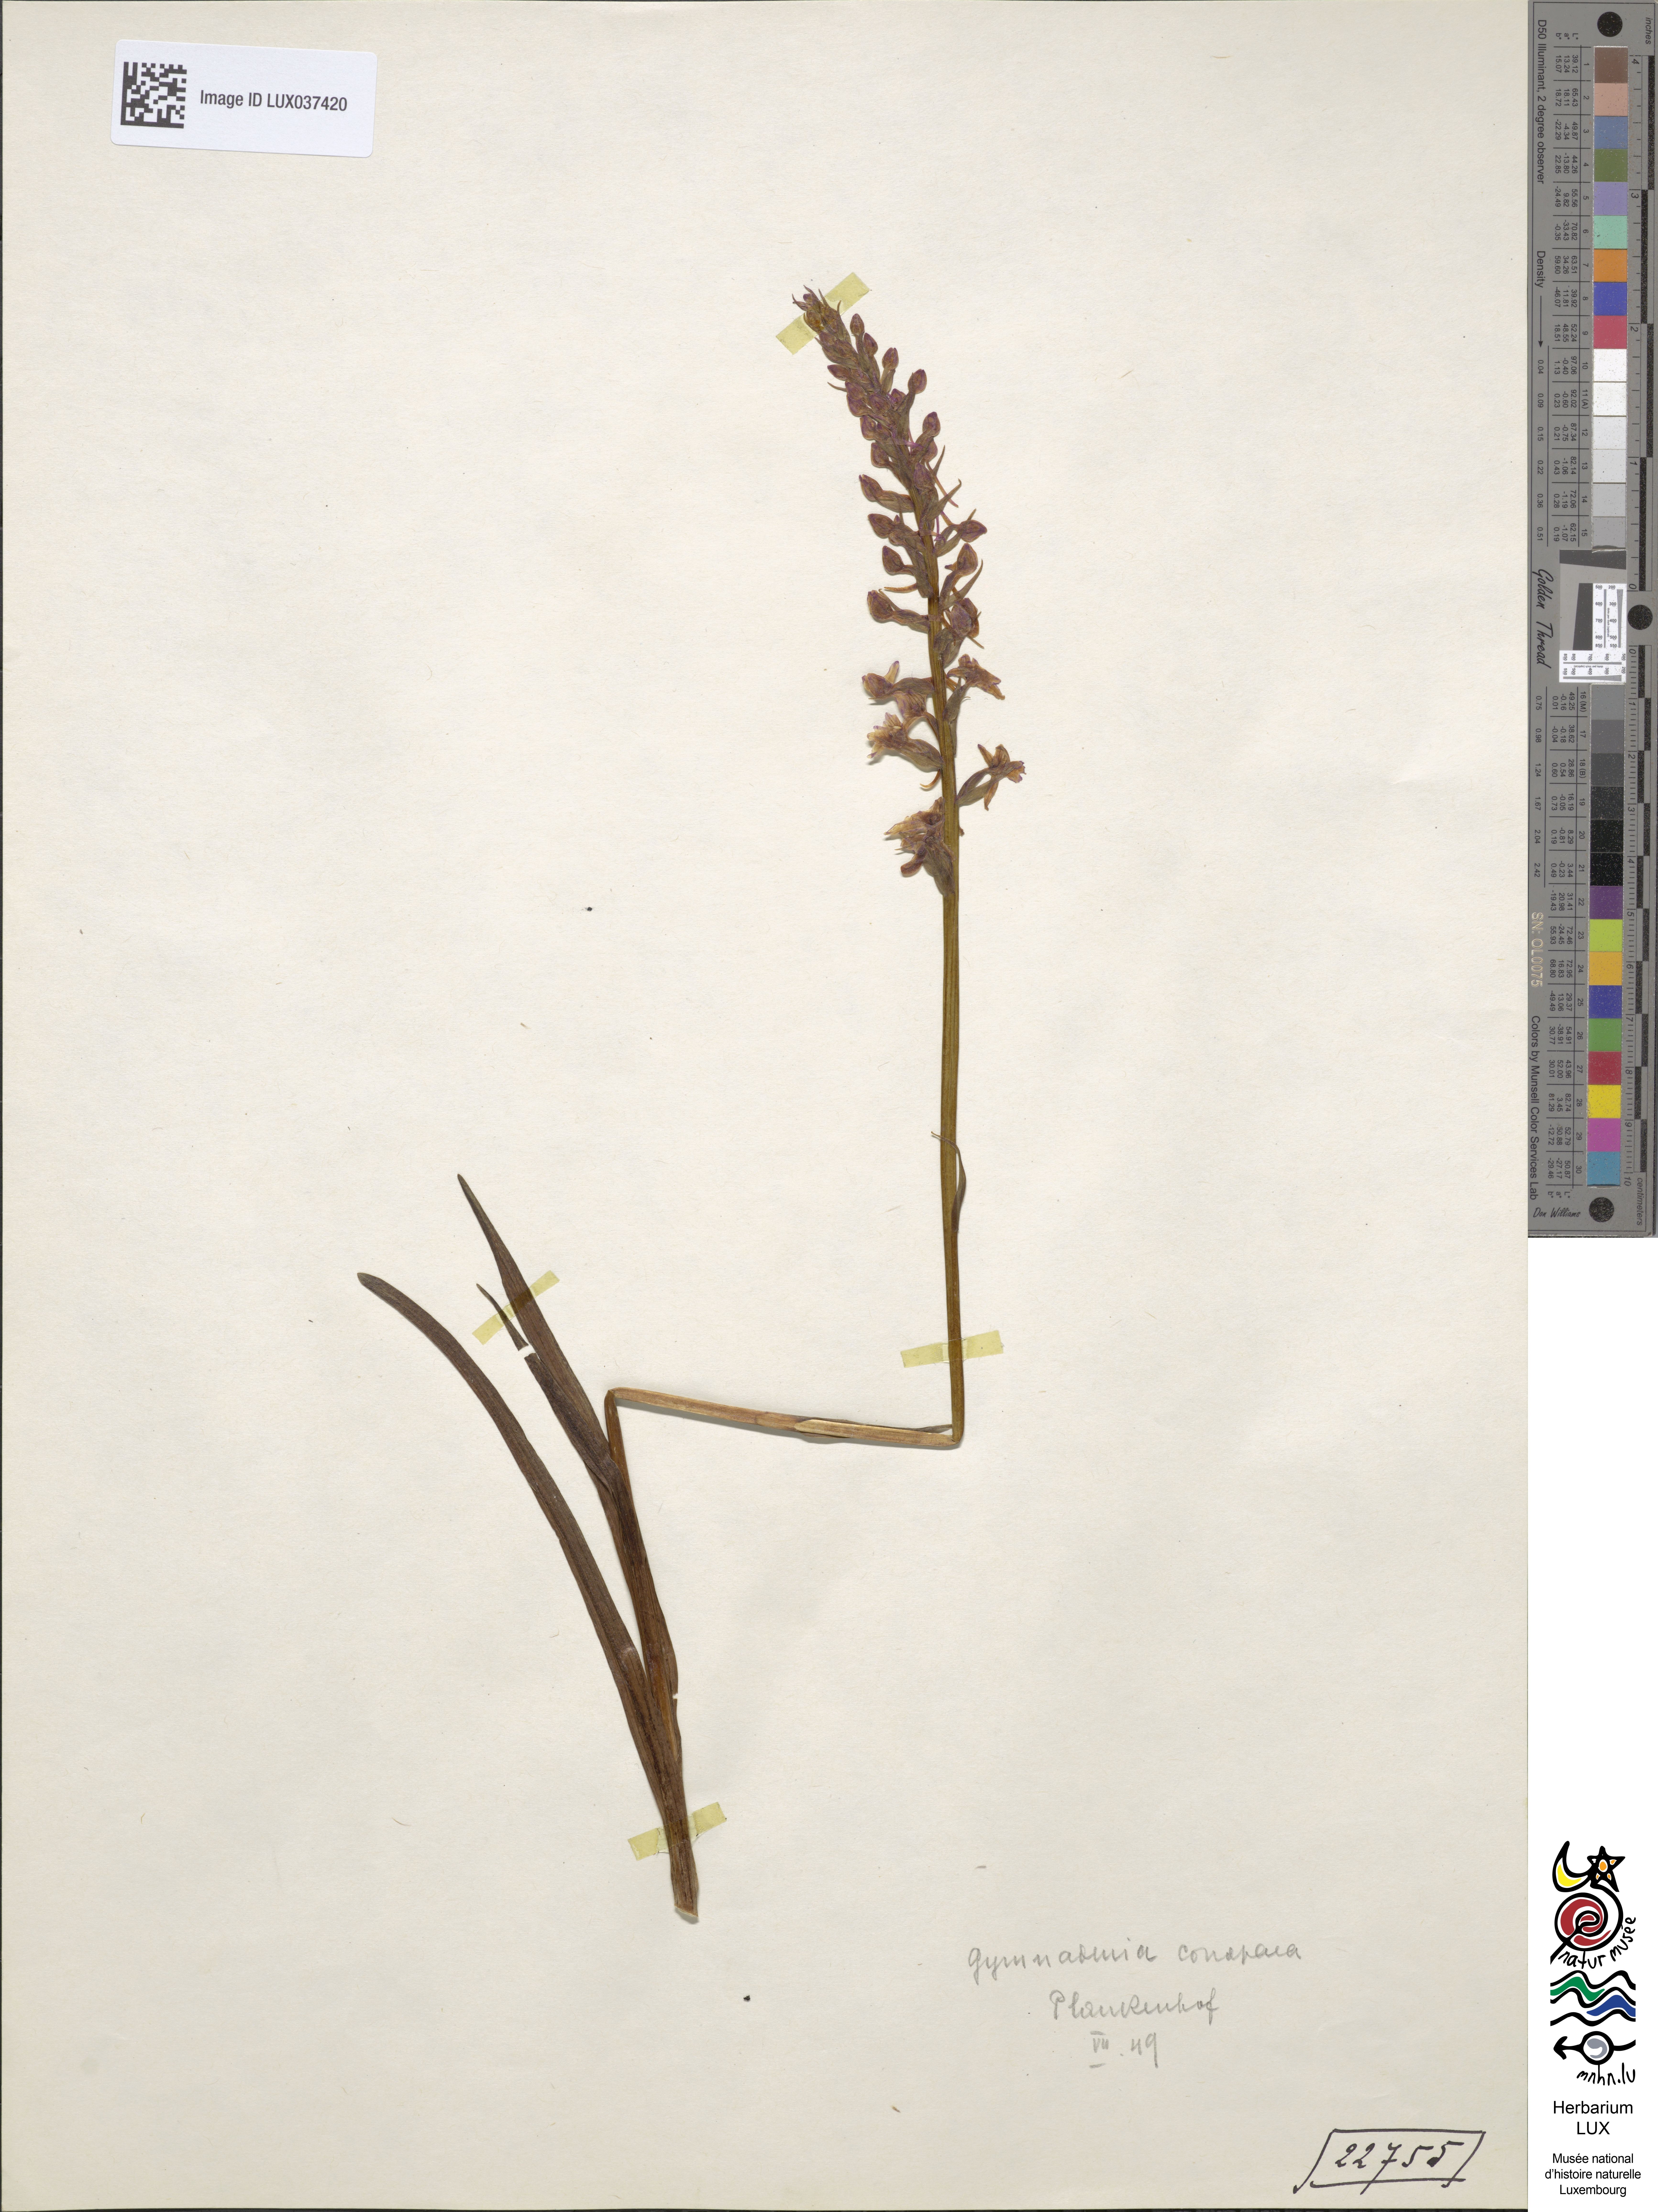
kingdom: Plantae
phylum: Tracheophyta
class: Liliopsida
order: Asparagales
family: Orchidaceae
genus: Gymnadenia
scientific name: Gymnadenia conopsea
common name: Fragrant orchid
